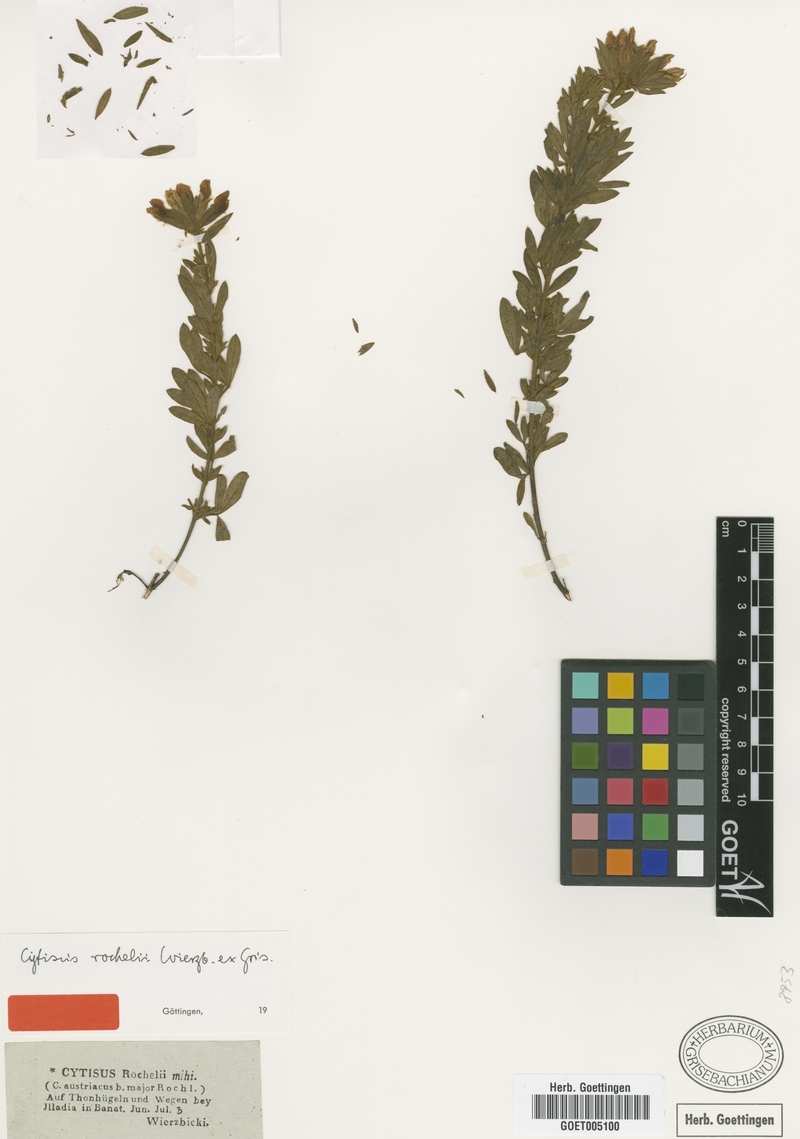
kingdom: Plantae
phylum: Tracheophyta
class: Magnoliopsida
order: Fabales
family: Fabaceae
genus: Chamaecytisus
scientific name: Chamaecytisus rochelii
